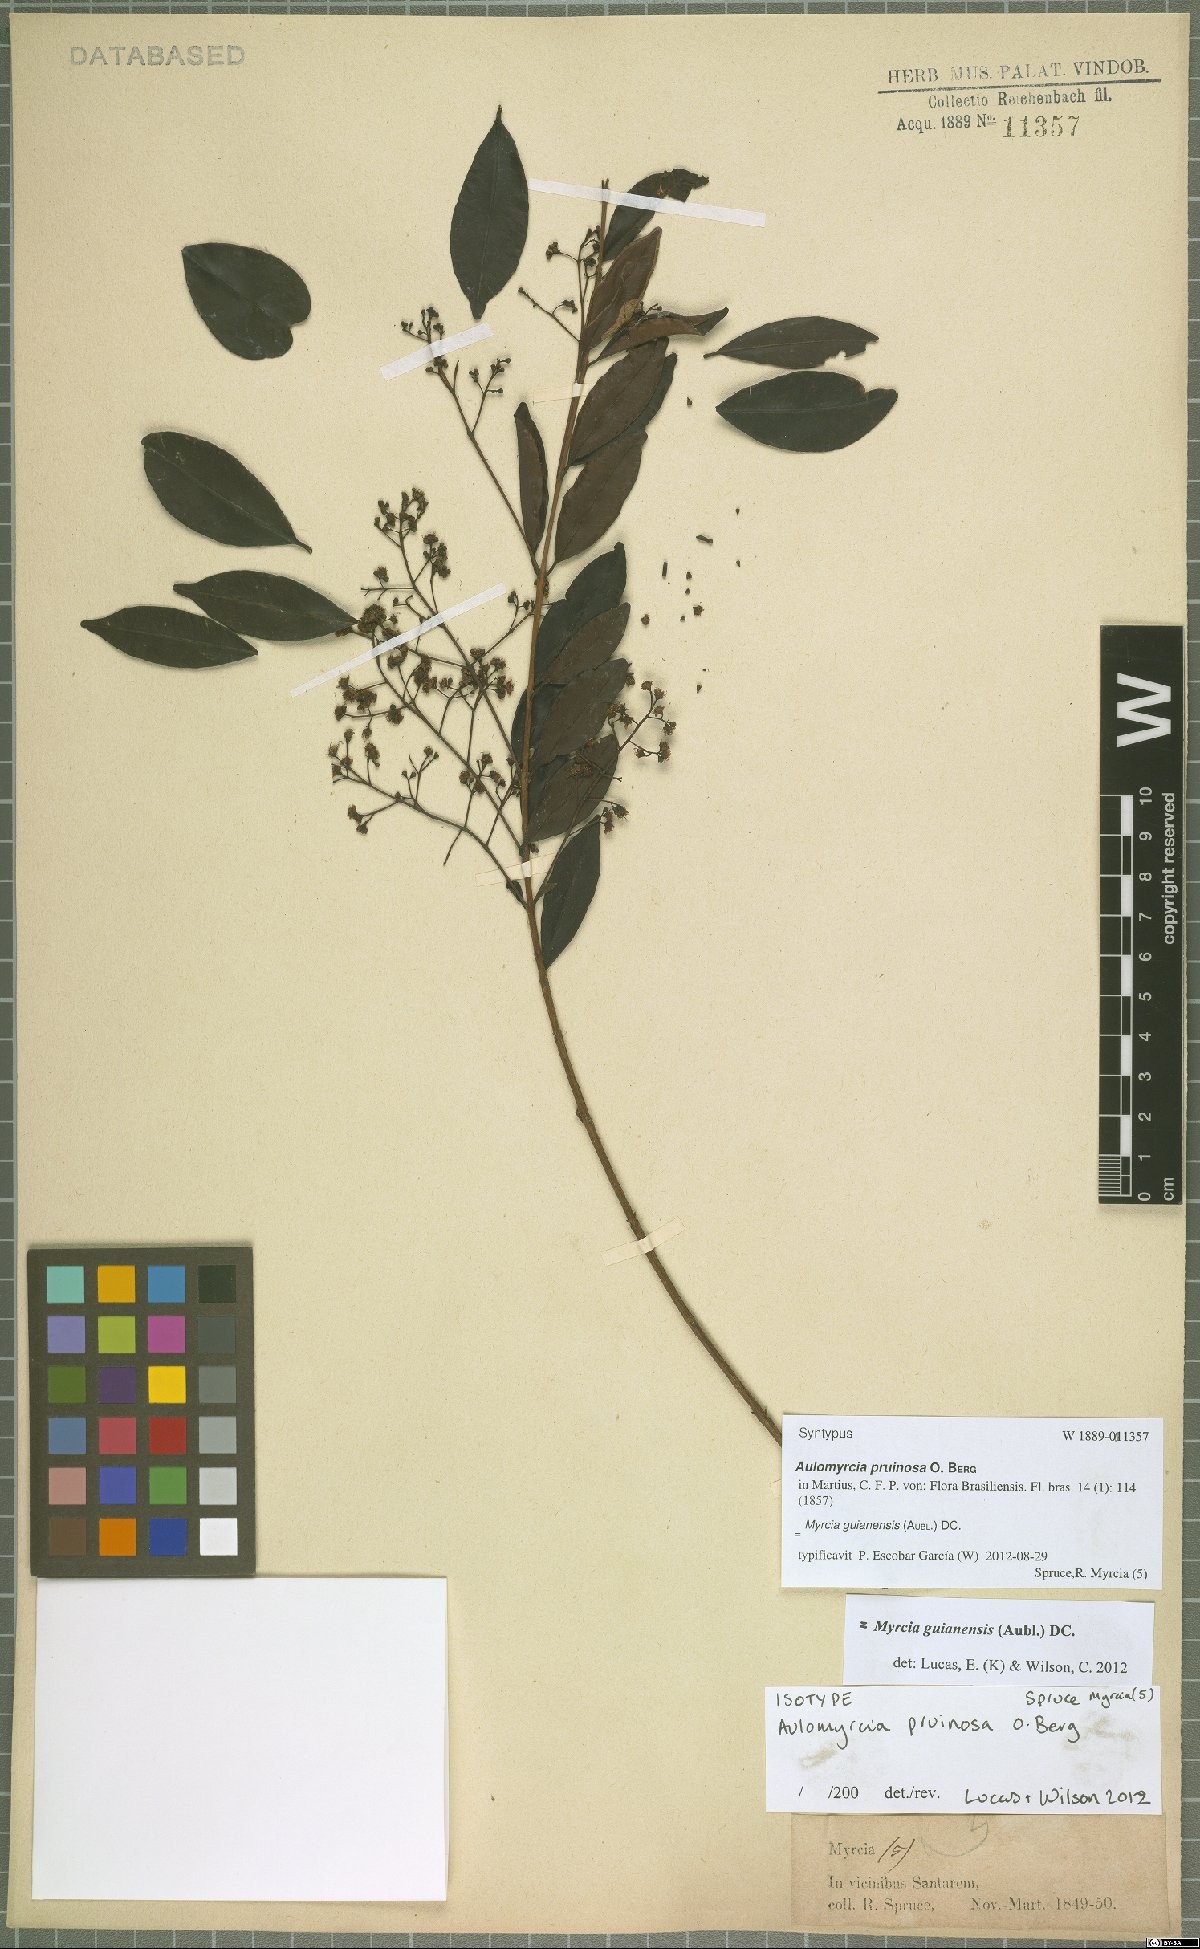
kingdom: Plantae
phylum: Tracheophyta
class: Magnoliopsida
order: Myrtales
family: Myrtaceae
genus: Myrcia
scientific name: Myrcia guianensis
